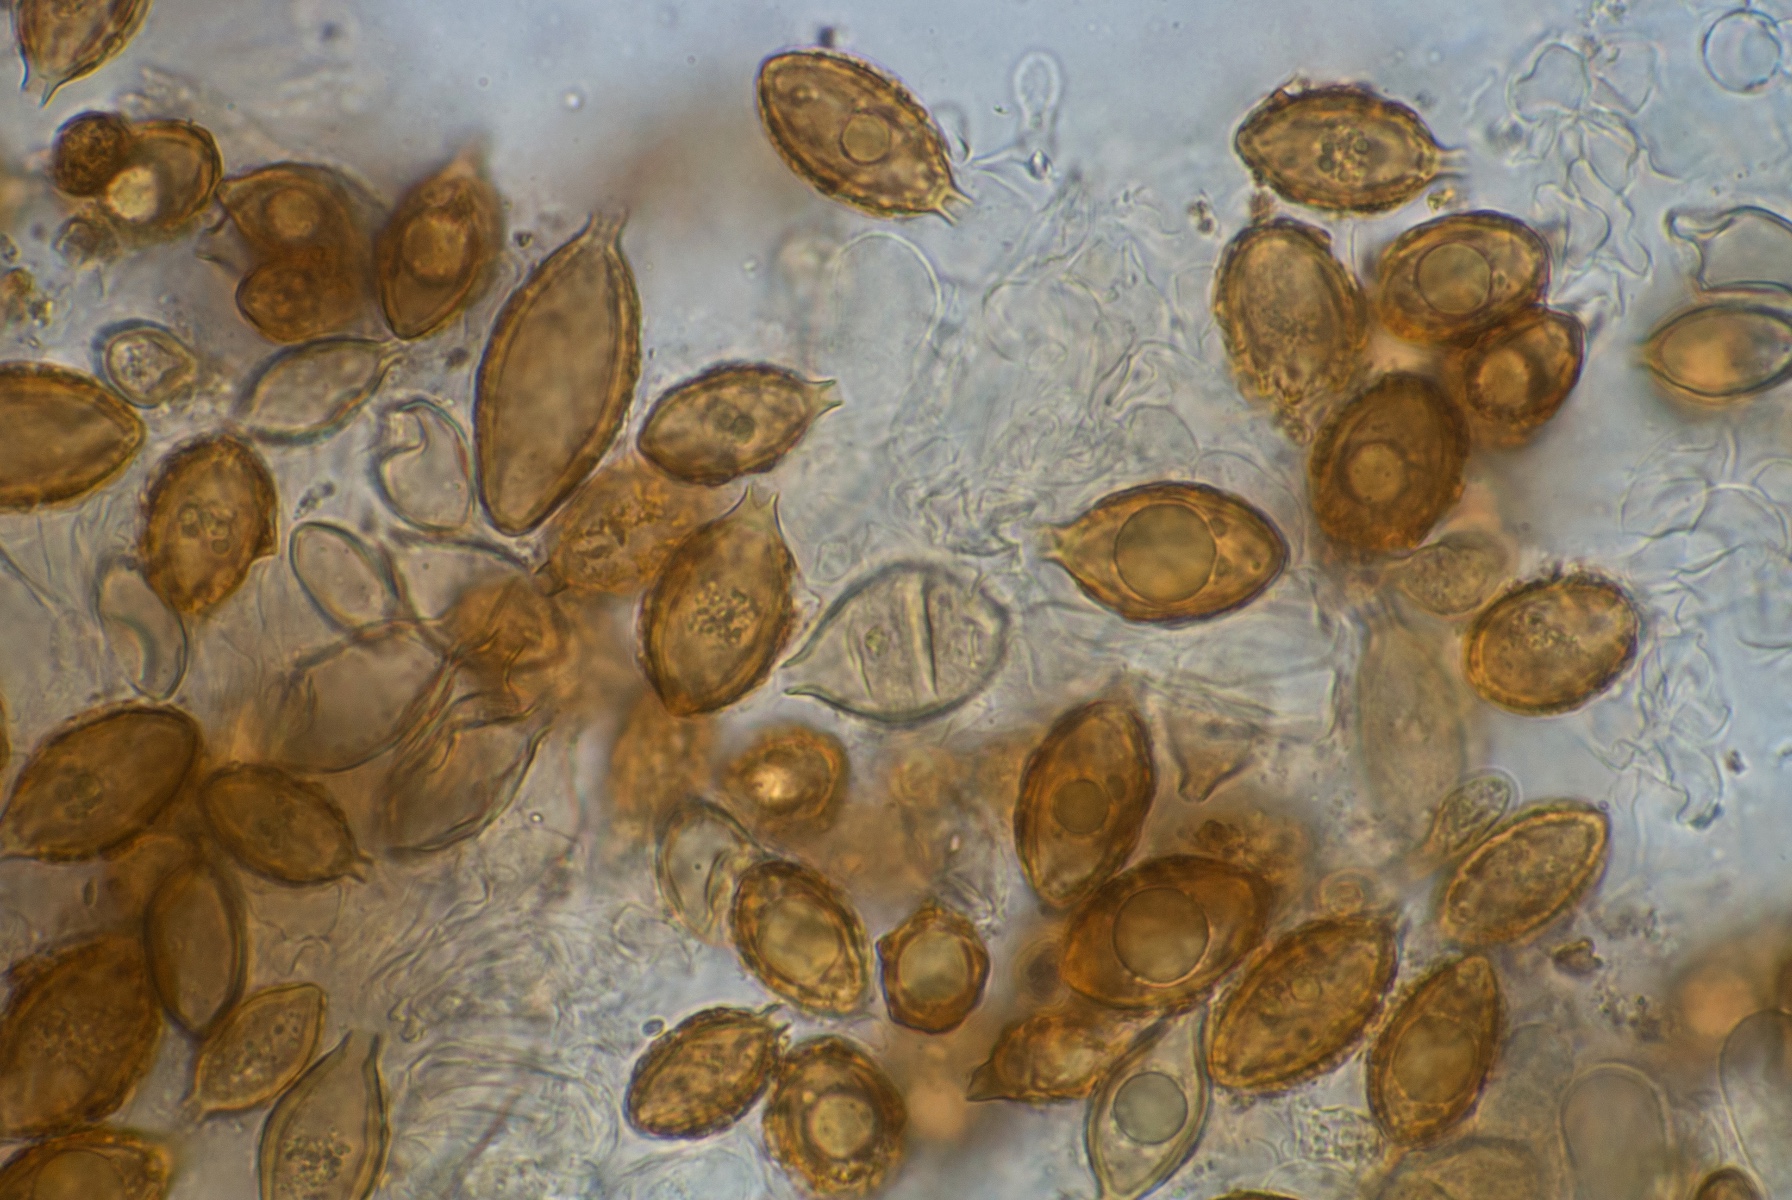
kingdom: Fungi
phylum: Basidiomycota
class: Agaricomycetes
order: Agaricales
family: Hymenogastraceae
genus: Hymenogaster
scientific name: Hymenogaster
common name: knoldtrøffel
